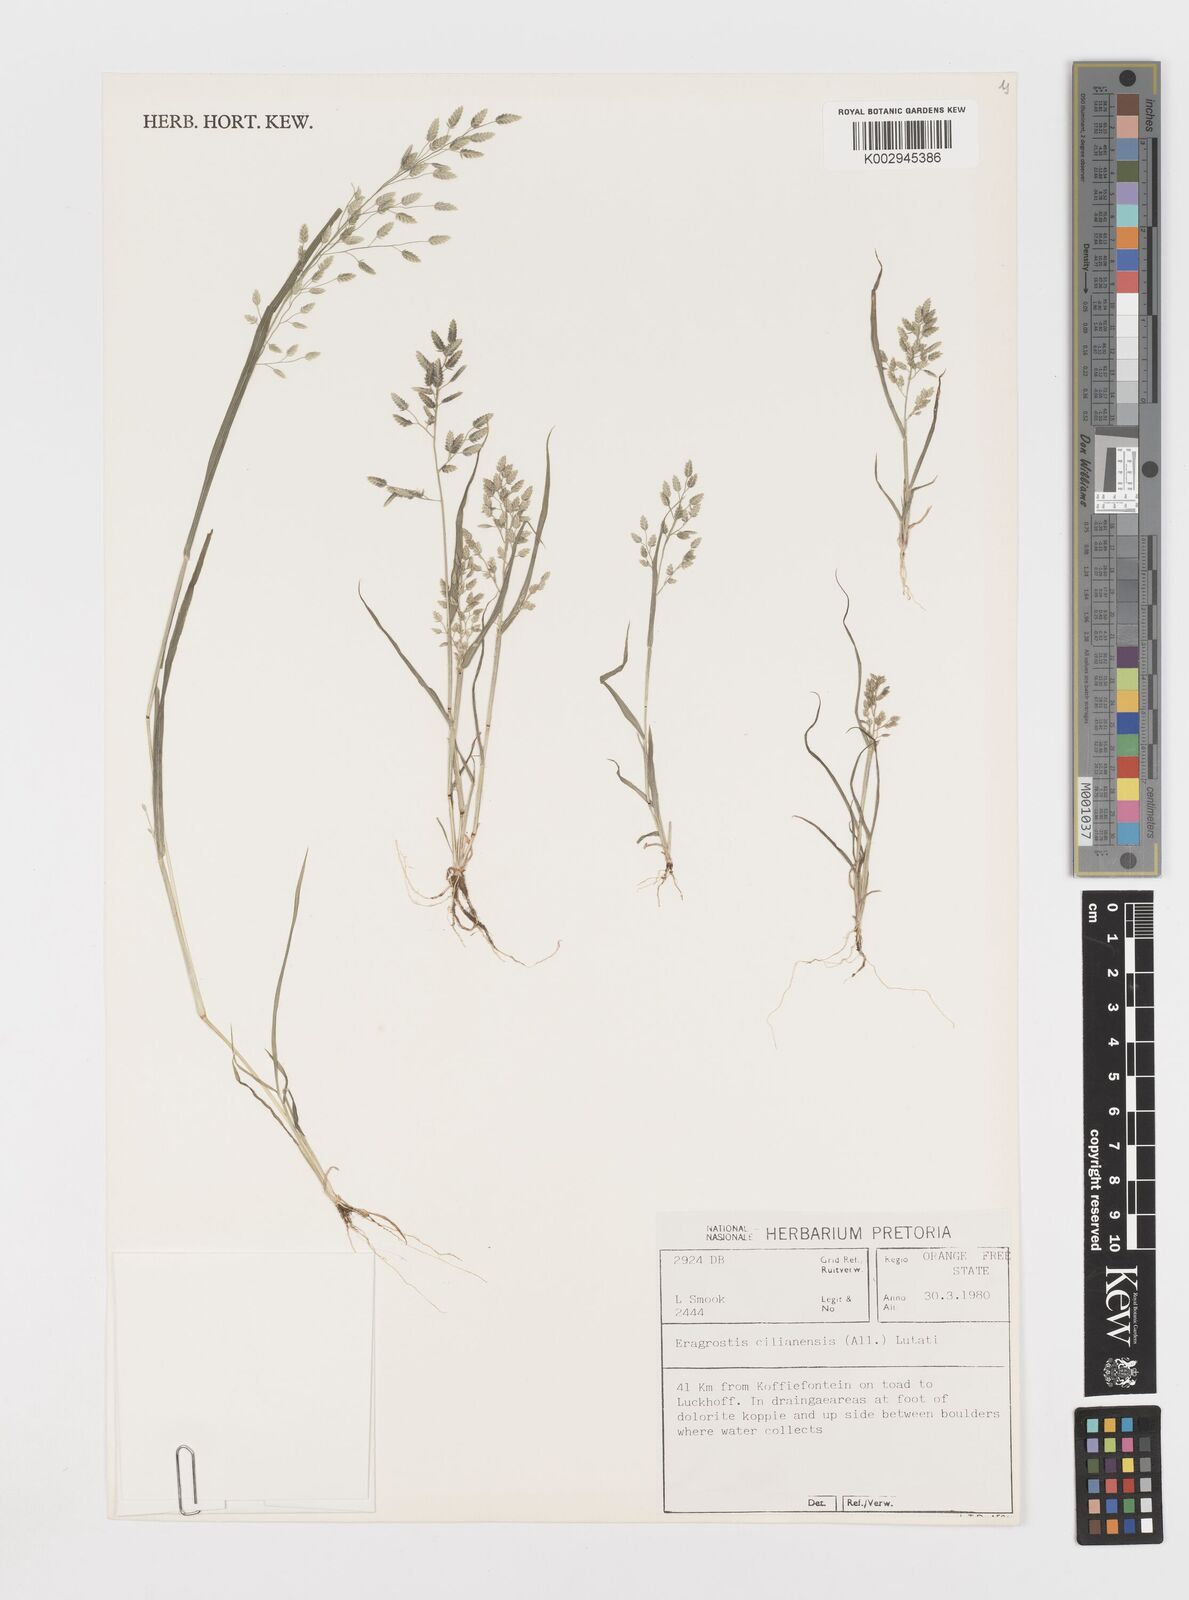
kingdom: Plantae
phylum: Tracheophyta
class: Liliopsida
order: Poales
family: Poaceae
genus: Eragrostis
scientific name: Eragrostis cilianensis
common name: Stinkgrass
